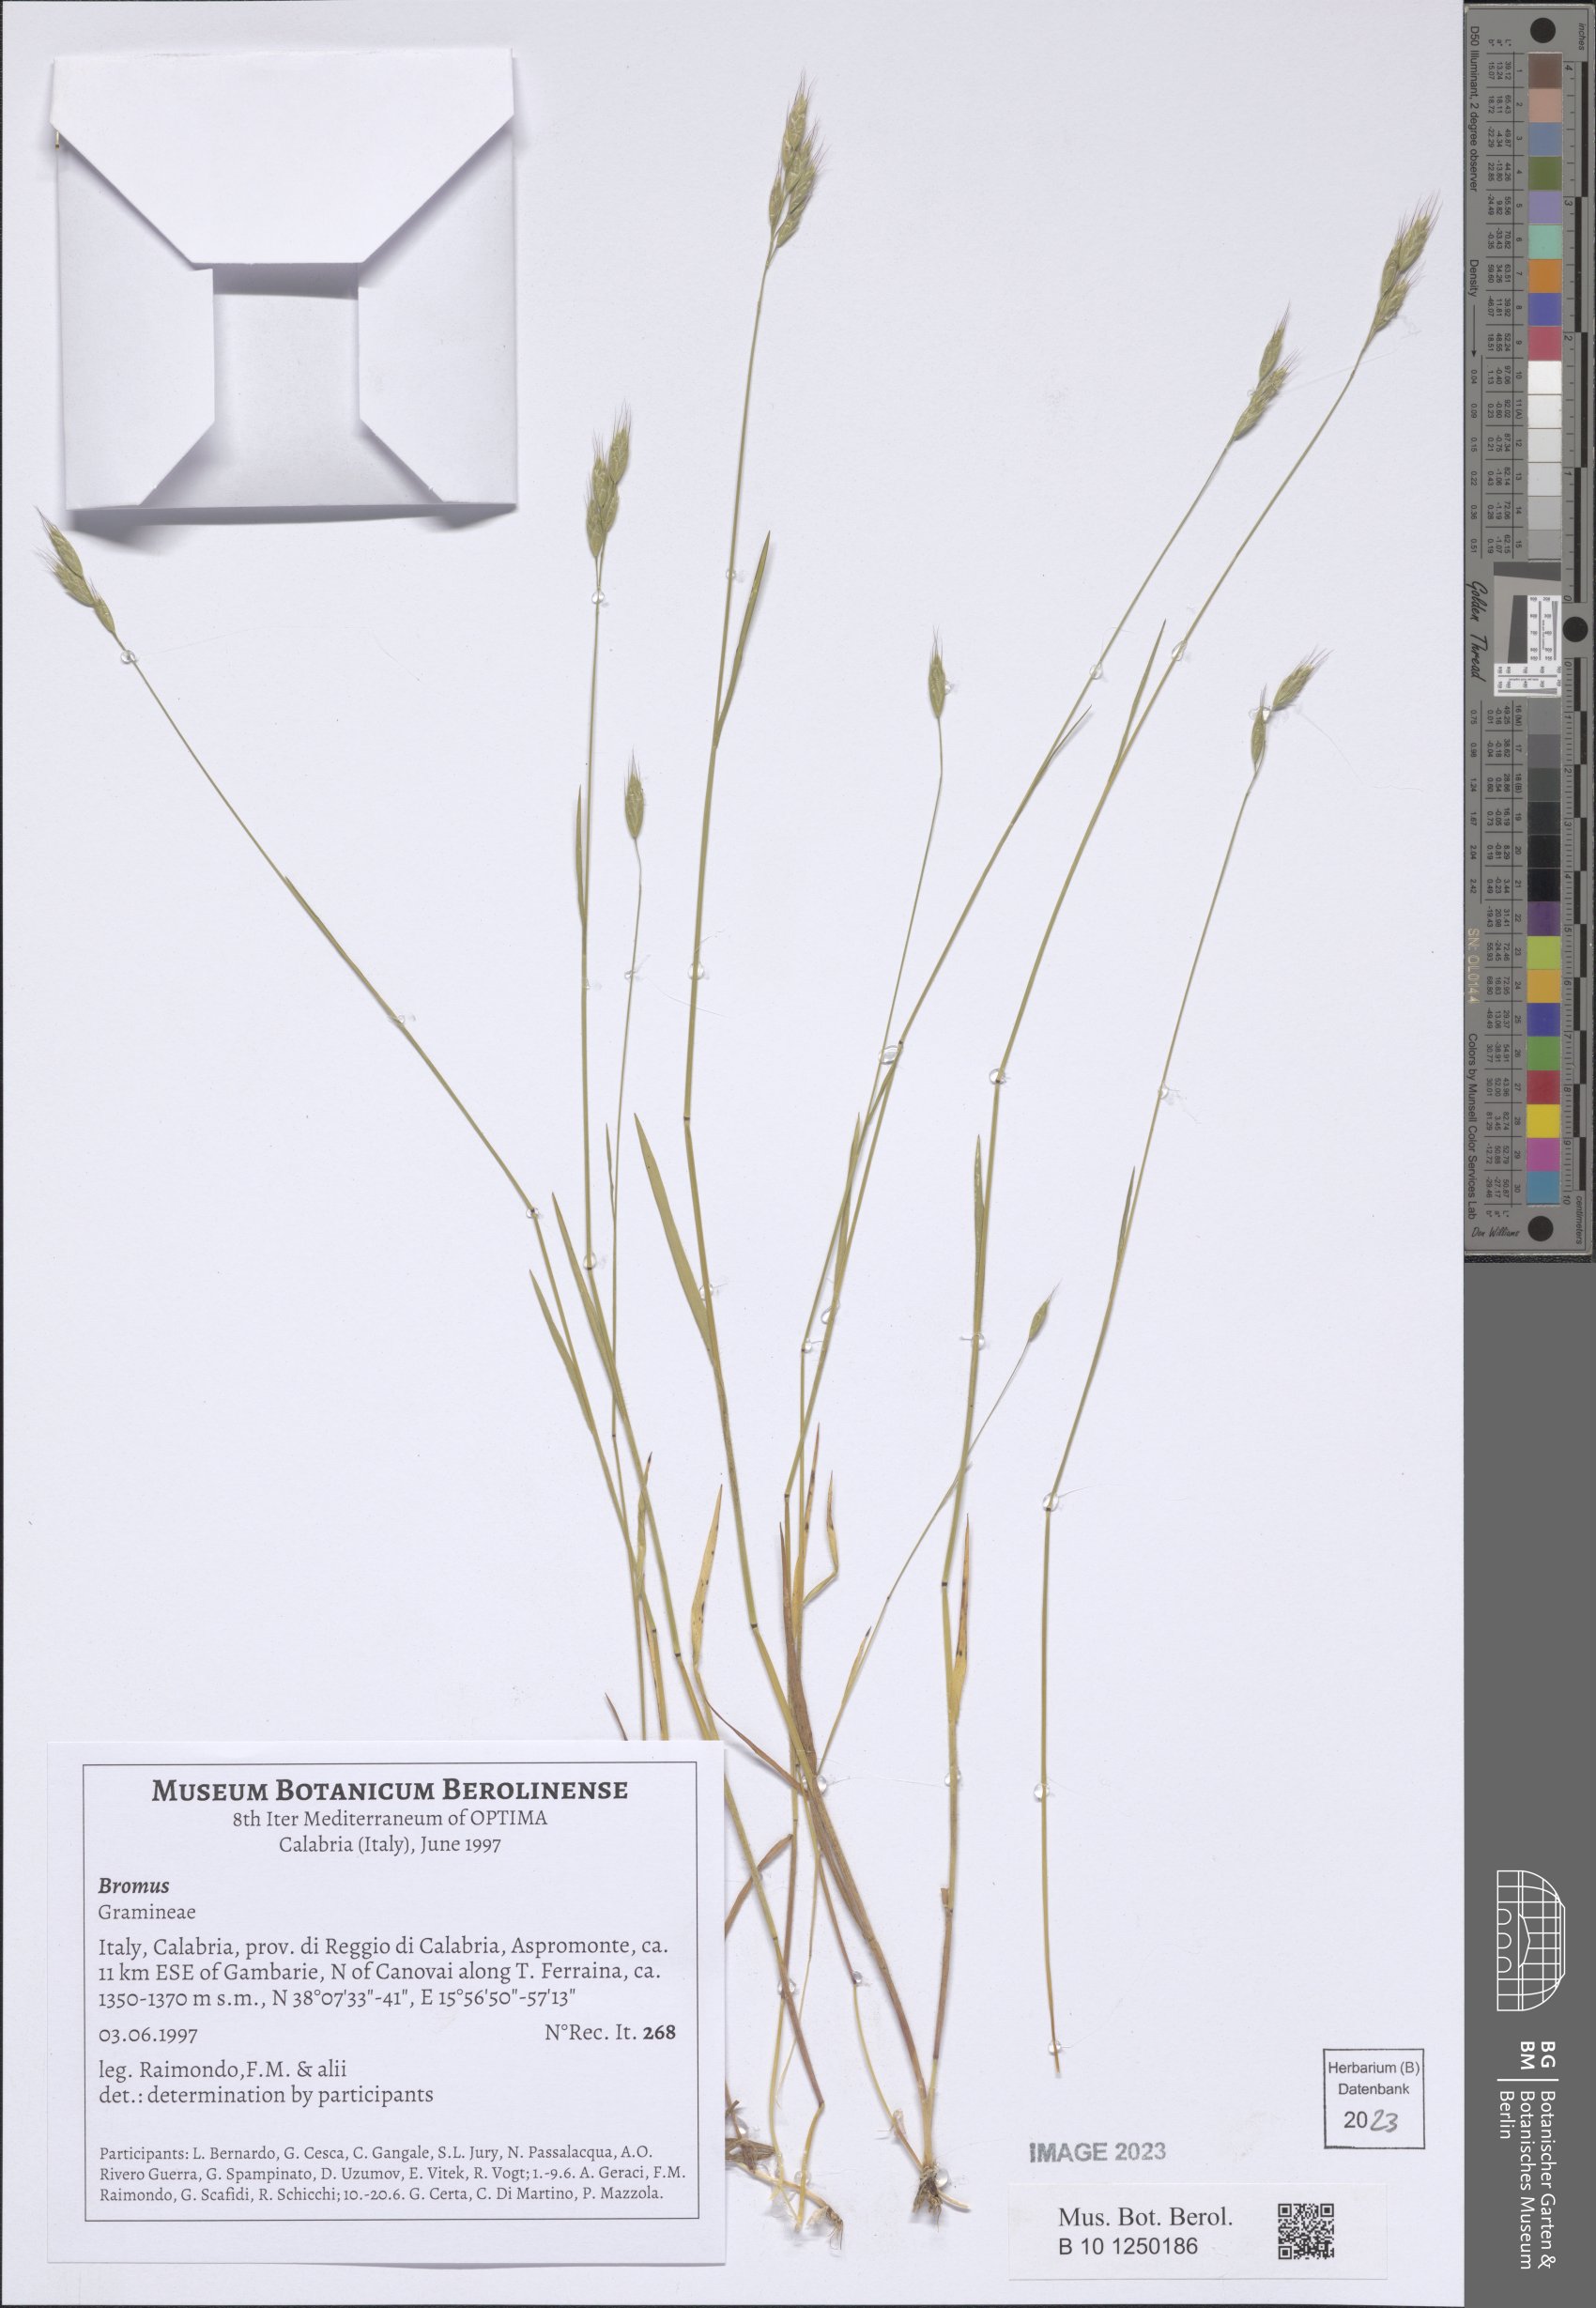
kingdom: Plantae
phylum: Tracheophyta
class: Liliopsida
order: Poales
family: Poaceae
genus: Bromus
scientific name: Bromus
